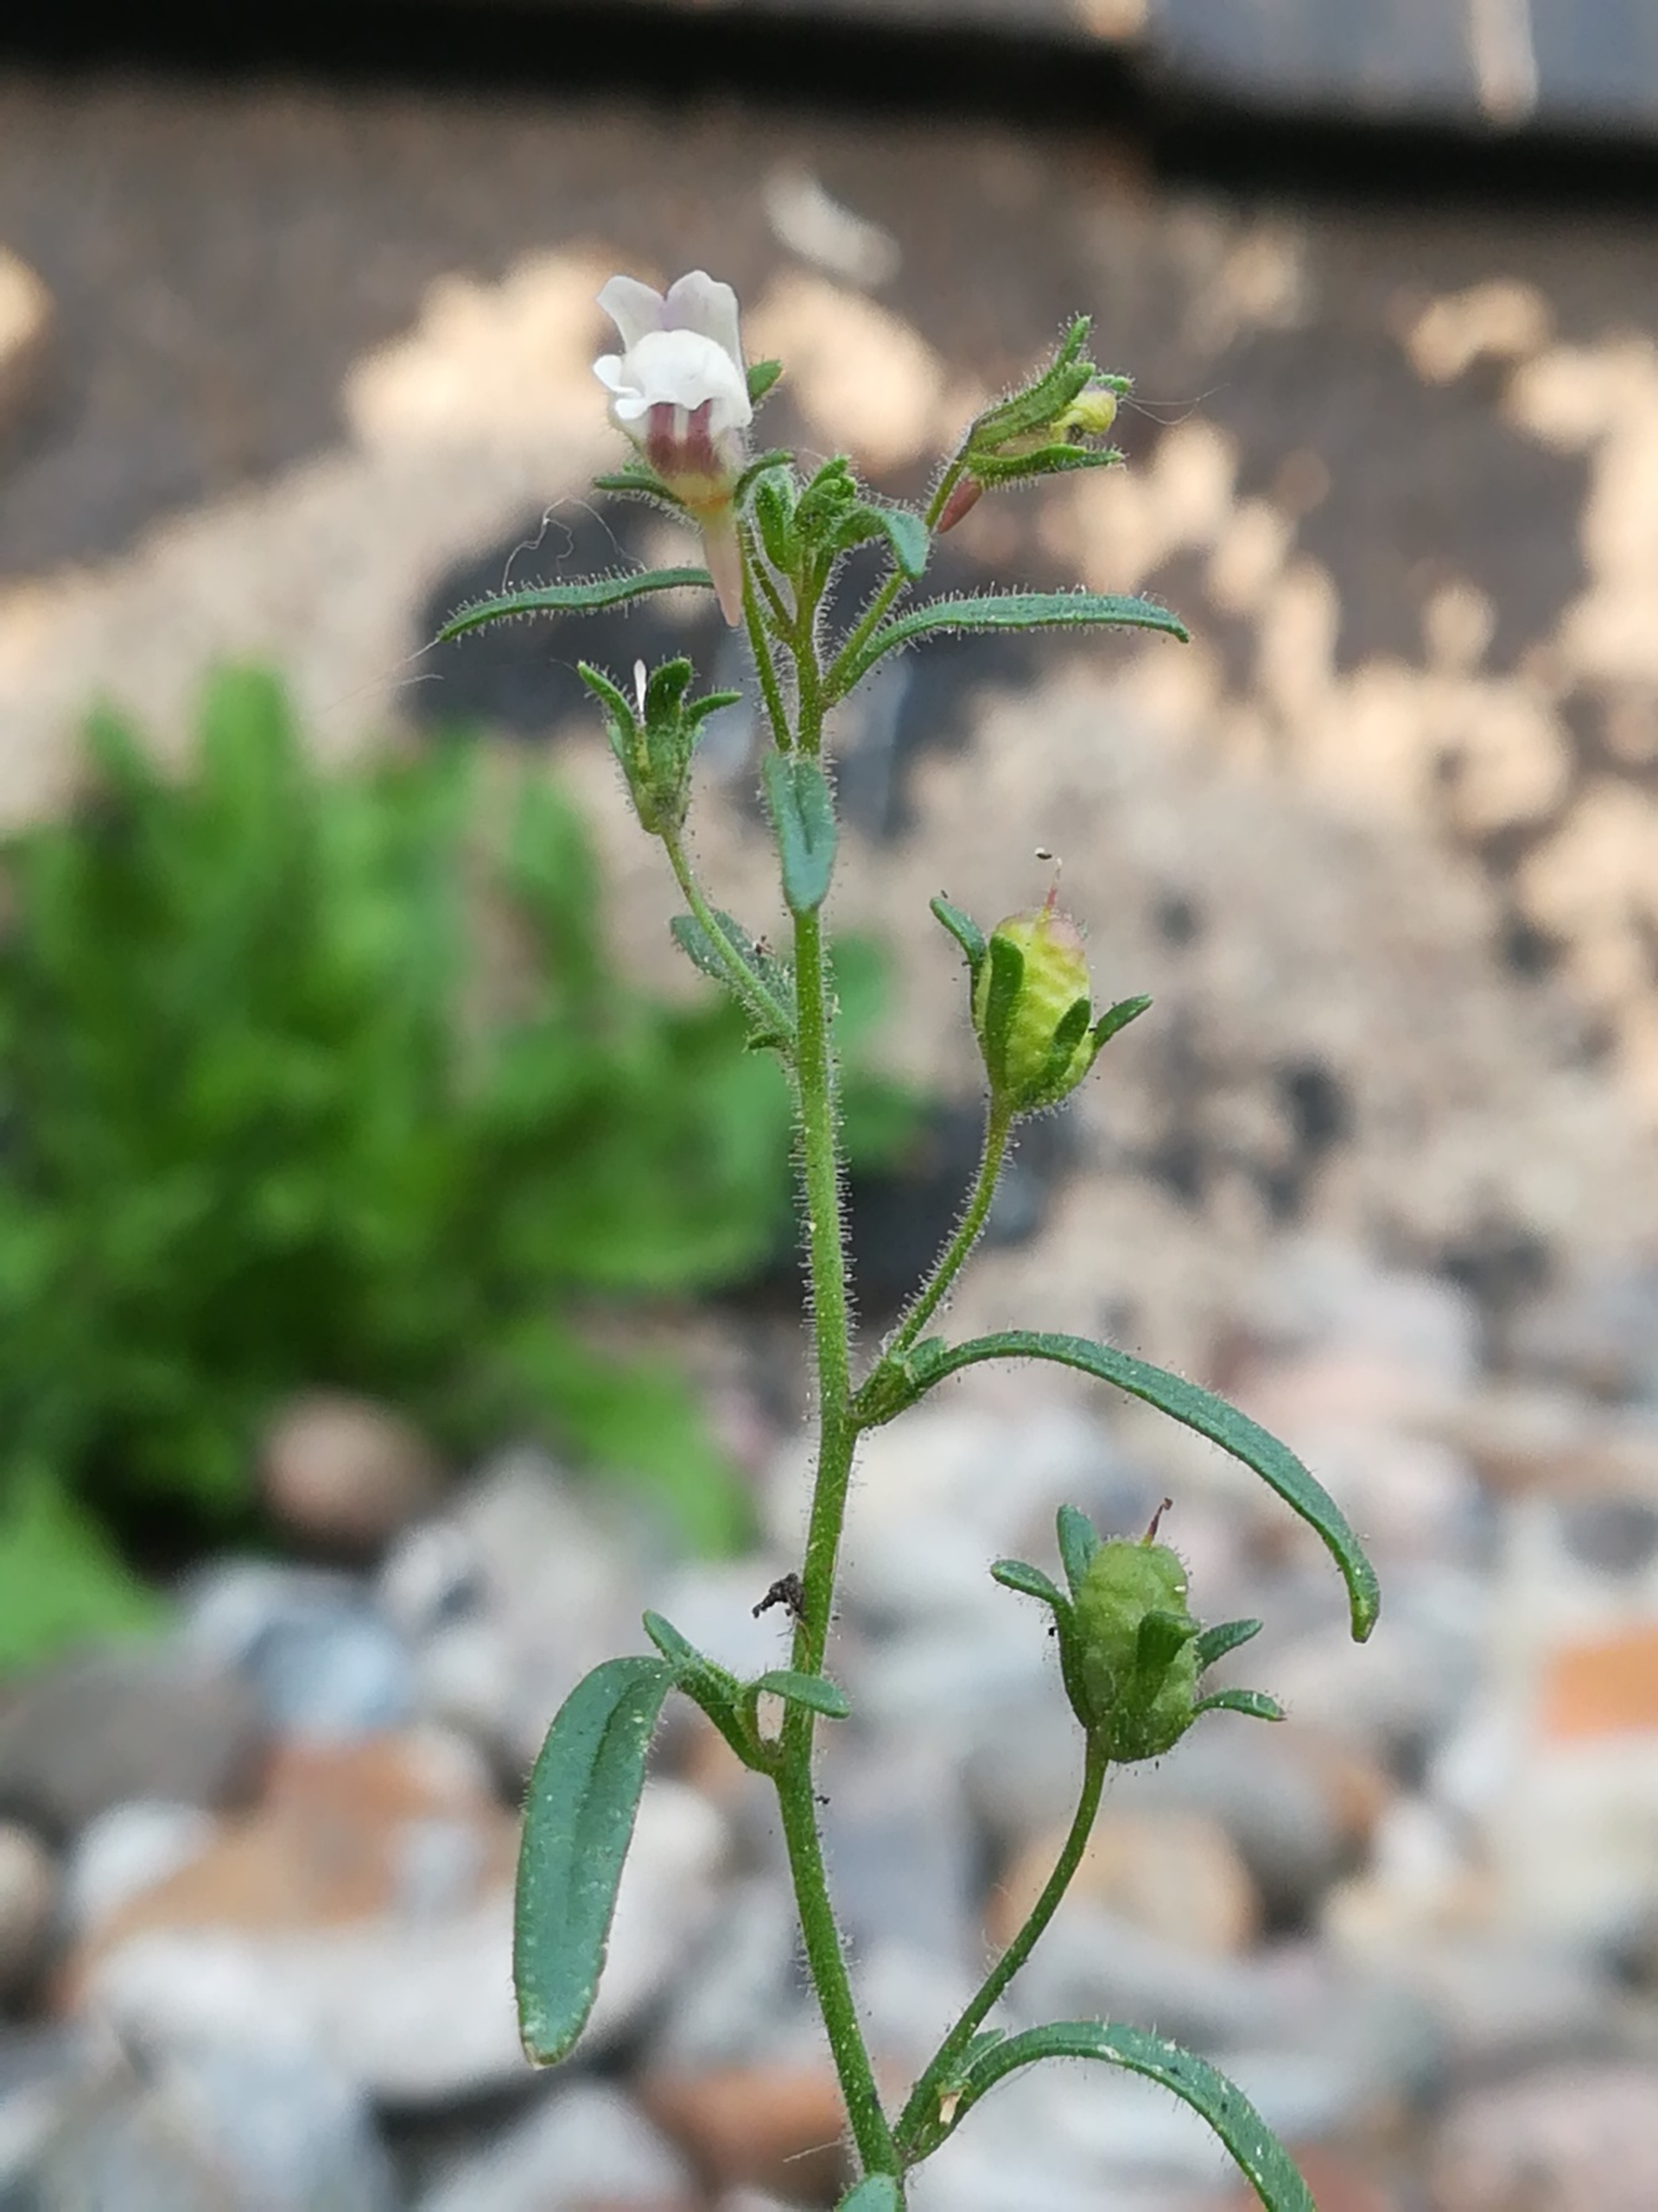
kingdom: Plantae
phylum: Tracheophyta
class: Magnoliopsida
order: Lamiales
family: Plantaginaceae
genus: Chaenorhinum
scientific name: Chaenorhinum minus
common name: Liden torskemund
